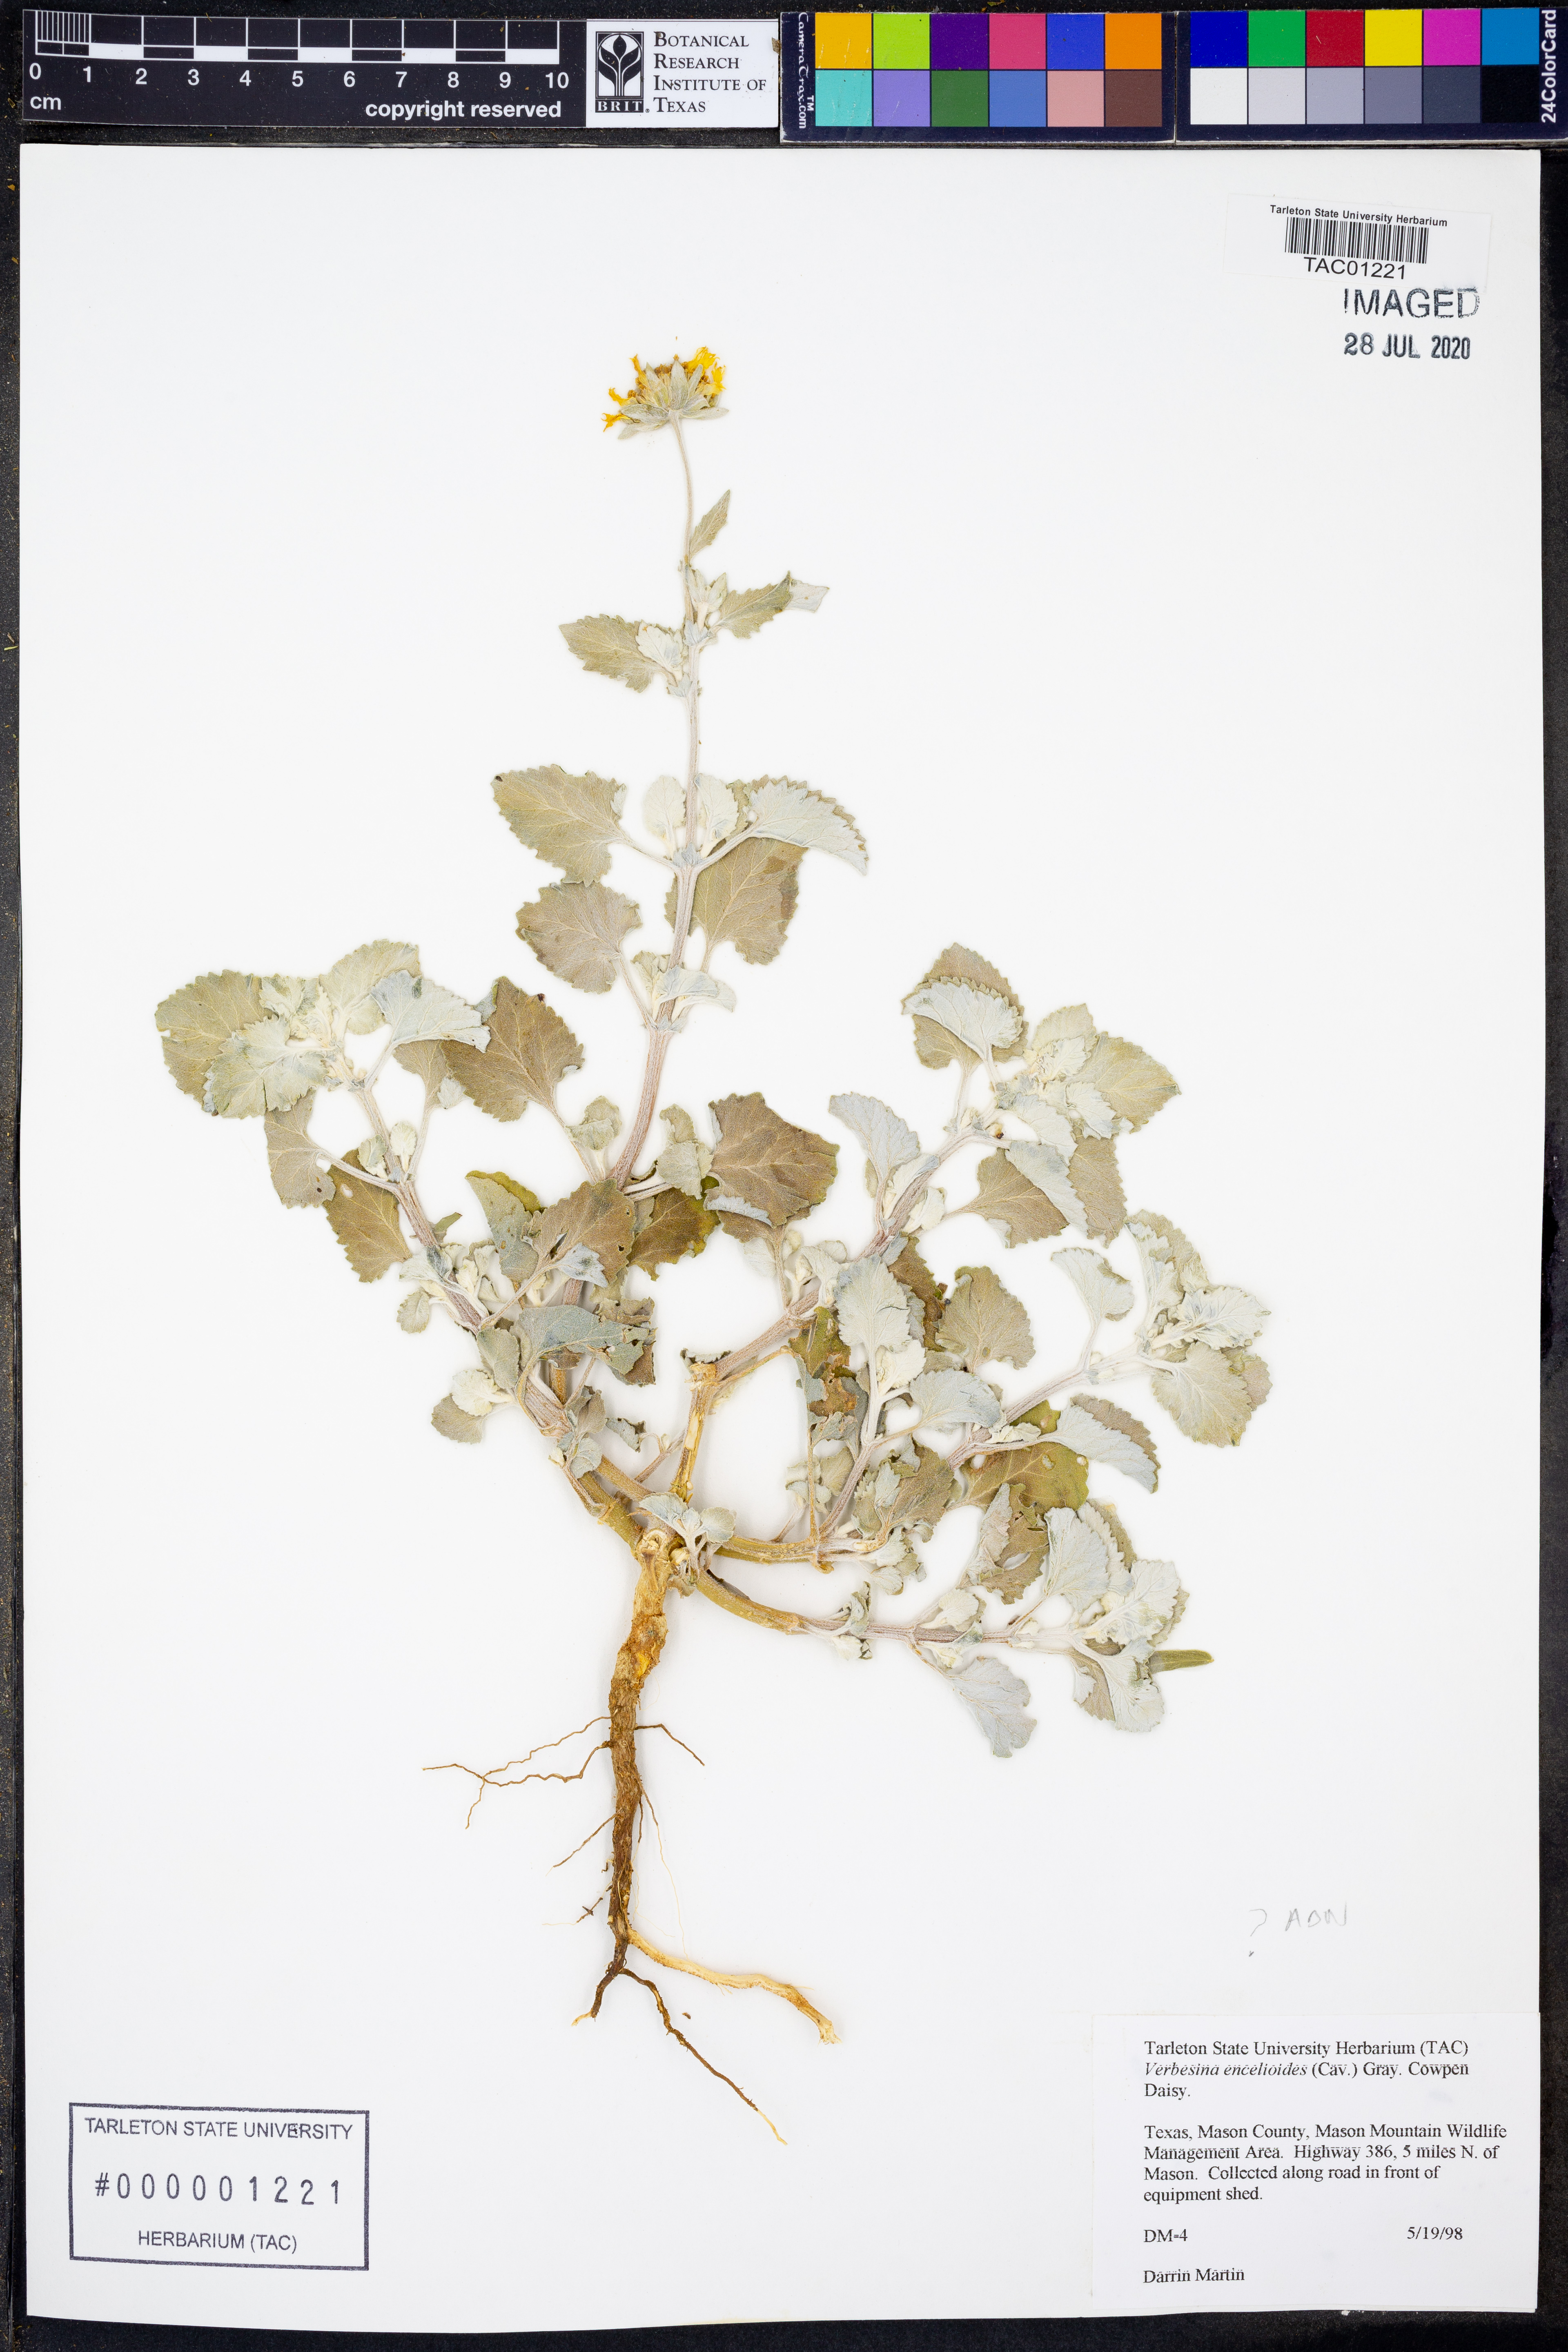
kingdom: Plantae
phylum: Tracheophyta
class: Magnoliopsida
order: Asterales
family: Asteraceae
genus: Verbesina
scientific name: Verbesina encelioides
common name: Golden crownbeard
